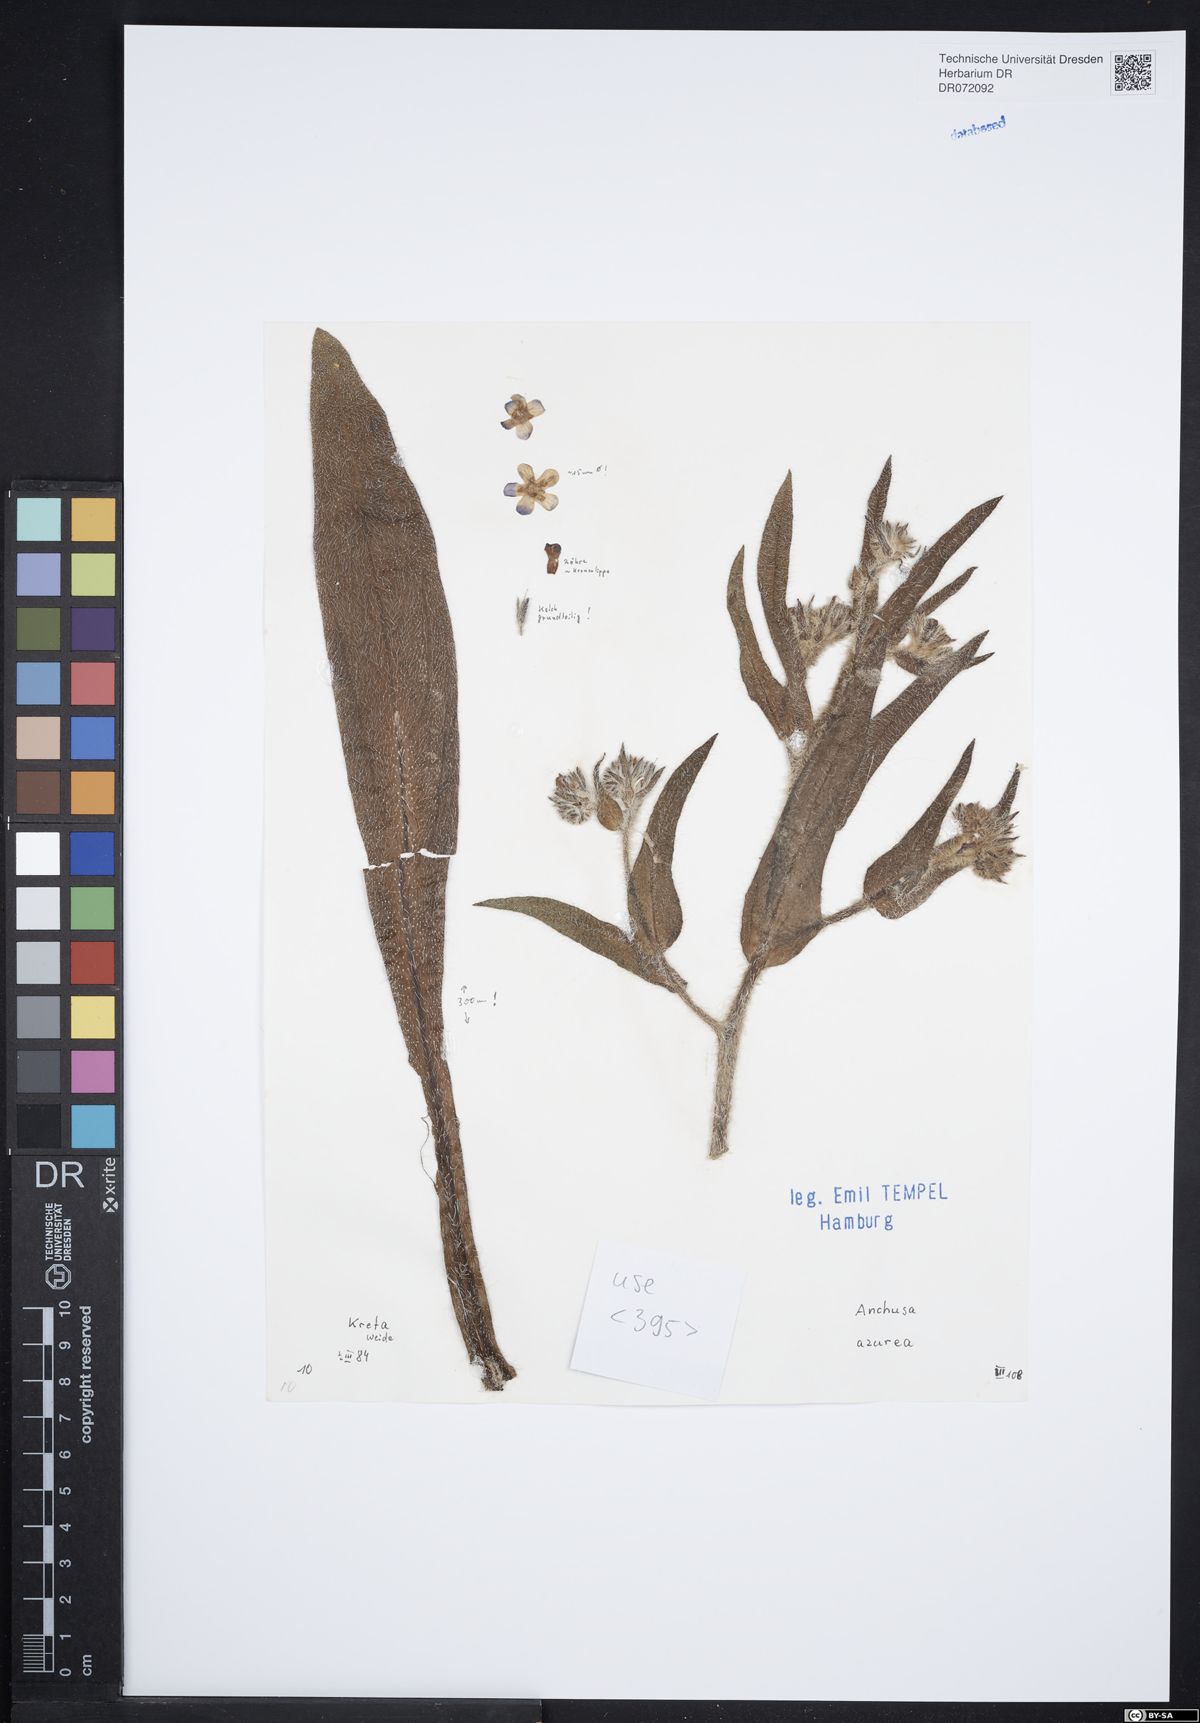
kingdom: Plantae
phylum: Tracheophyta
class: Magnoliopsida
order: Boraginales
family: Boraginaceae
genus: Anchusa
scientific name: Anchusa azurea
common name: Garden anchusa
